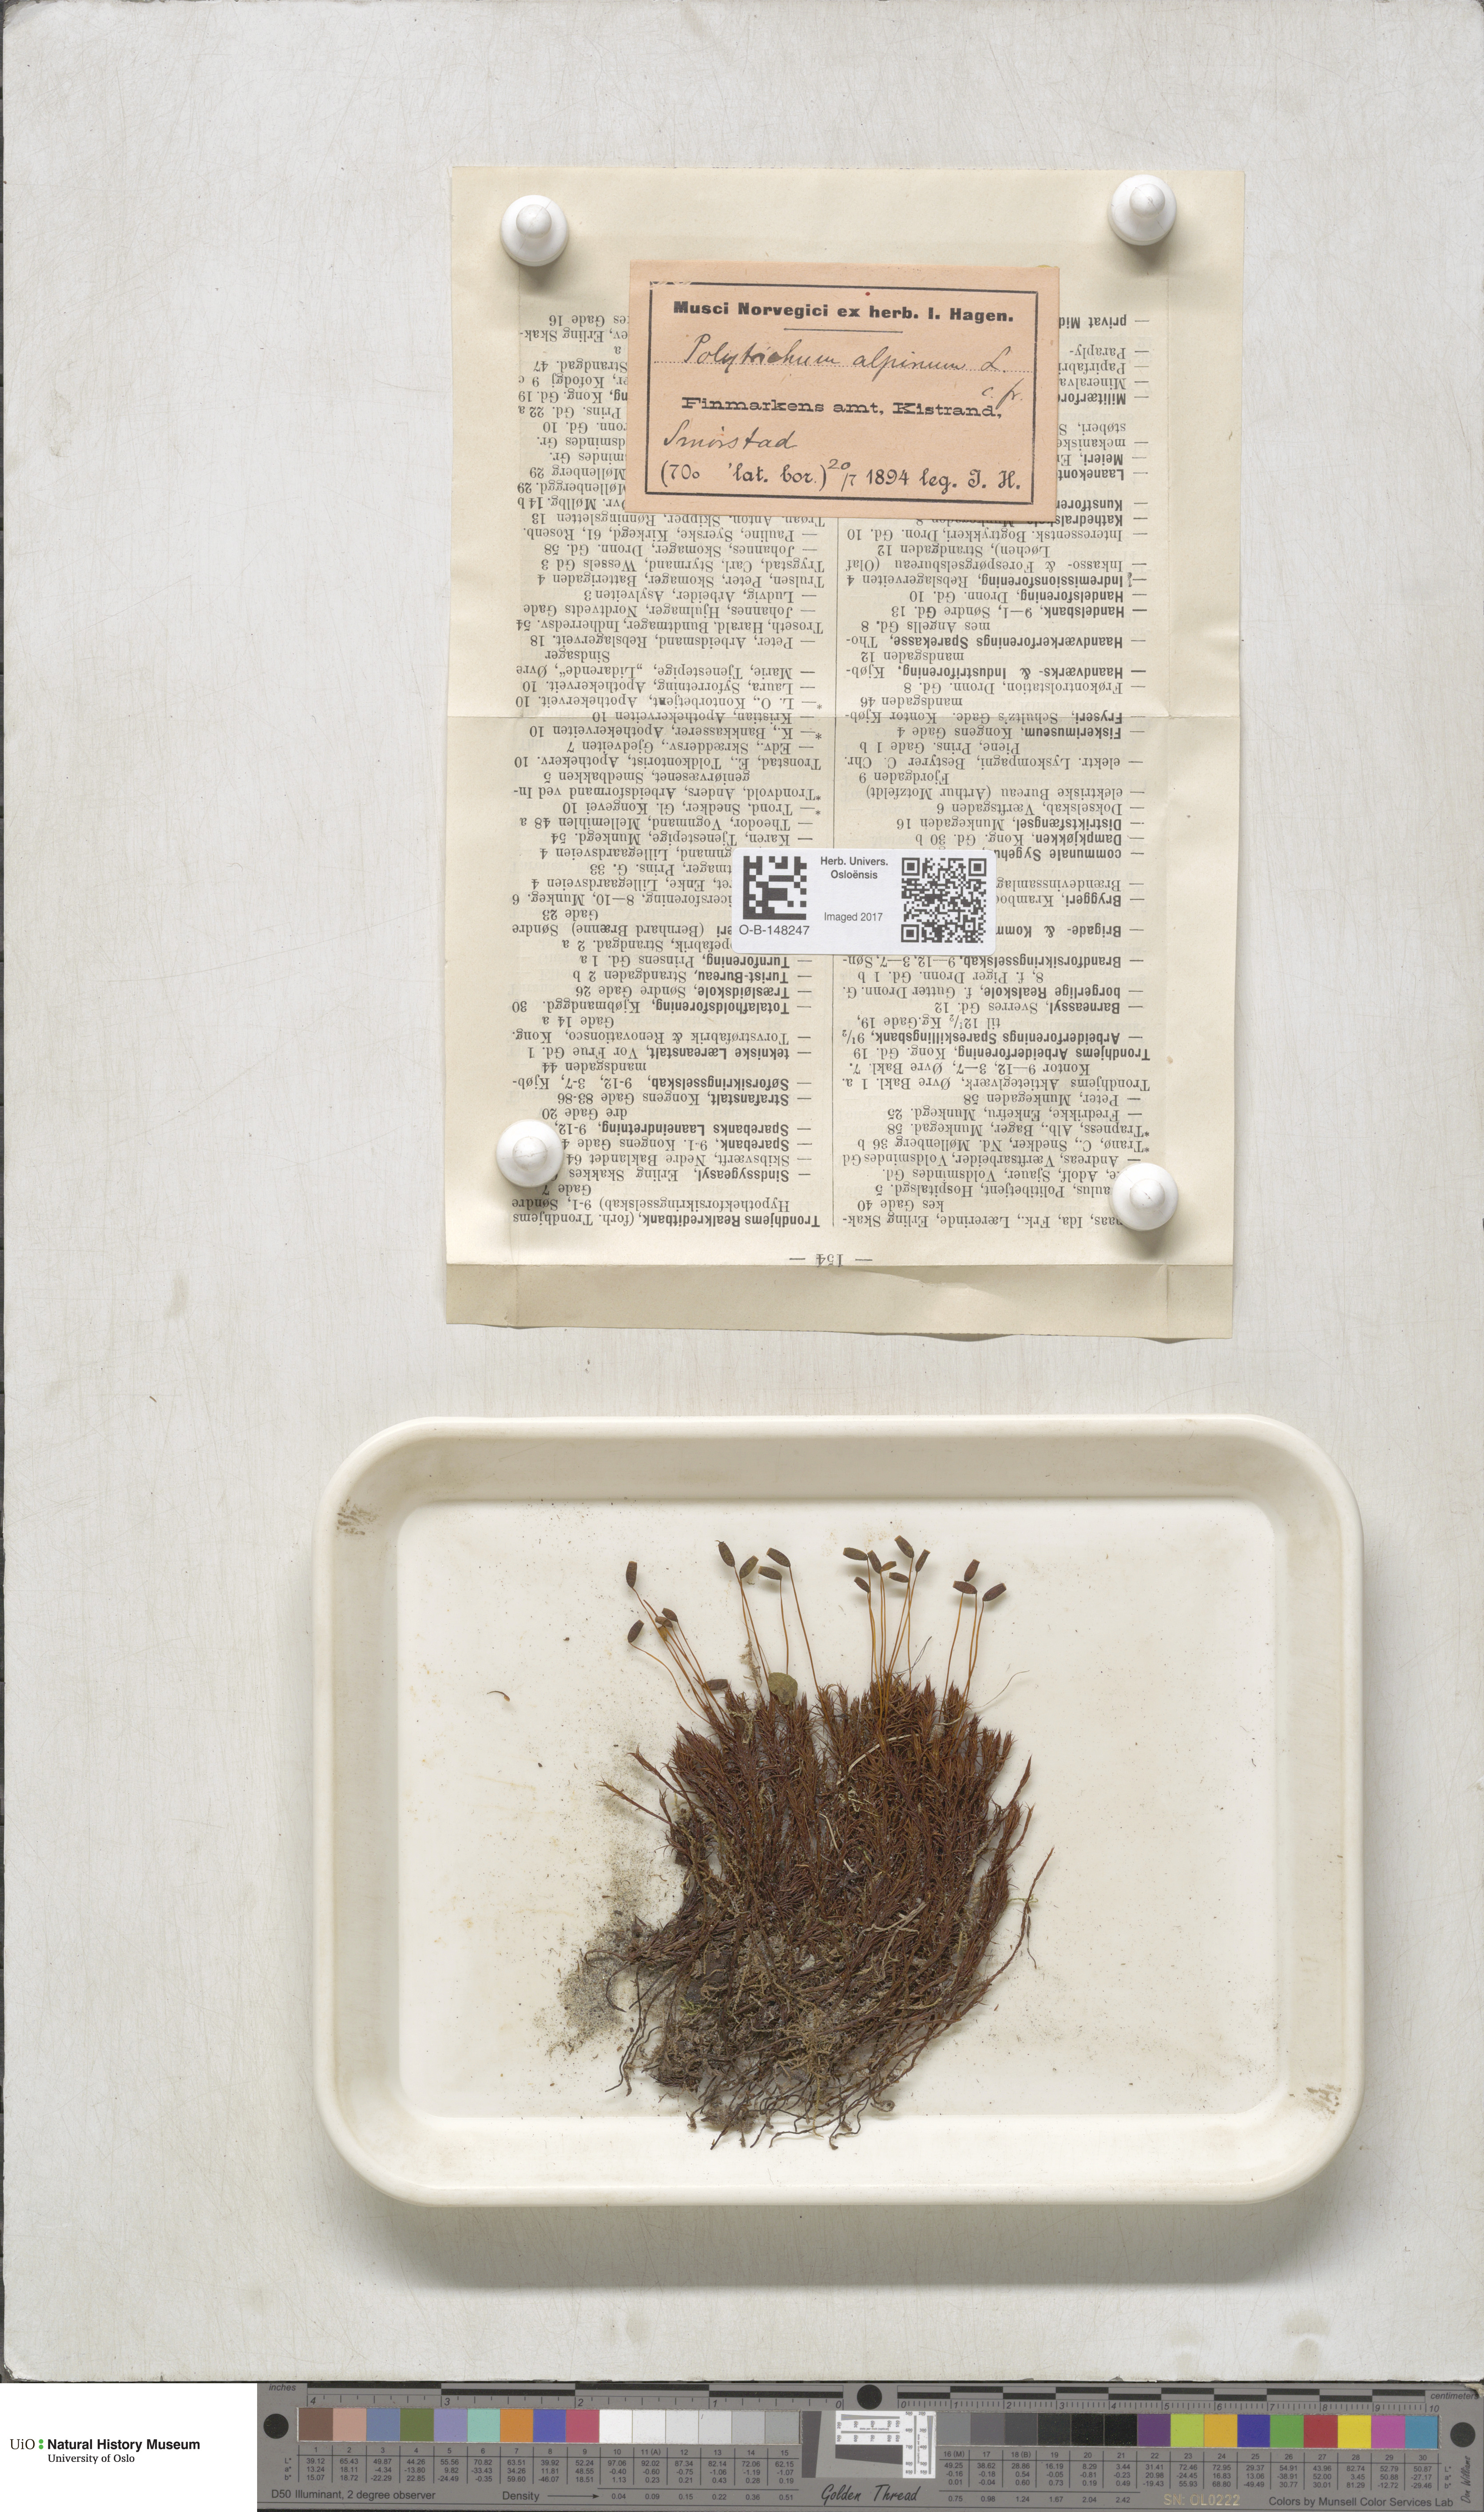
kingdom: Plantae
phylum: Bryophyta
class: Polytrichopsida
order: Polytrichales
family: Polytrichaceae
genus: Polytrichastrum
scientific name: Polytrichastrum alpinum
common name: Alpine haircap
